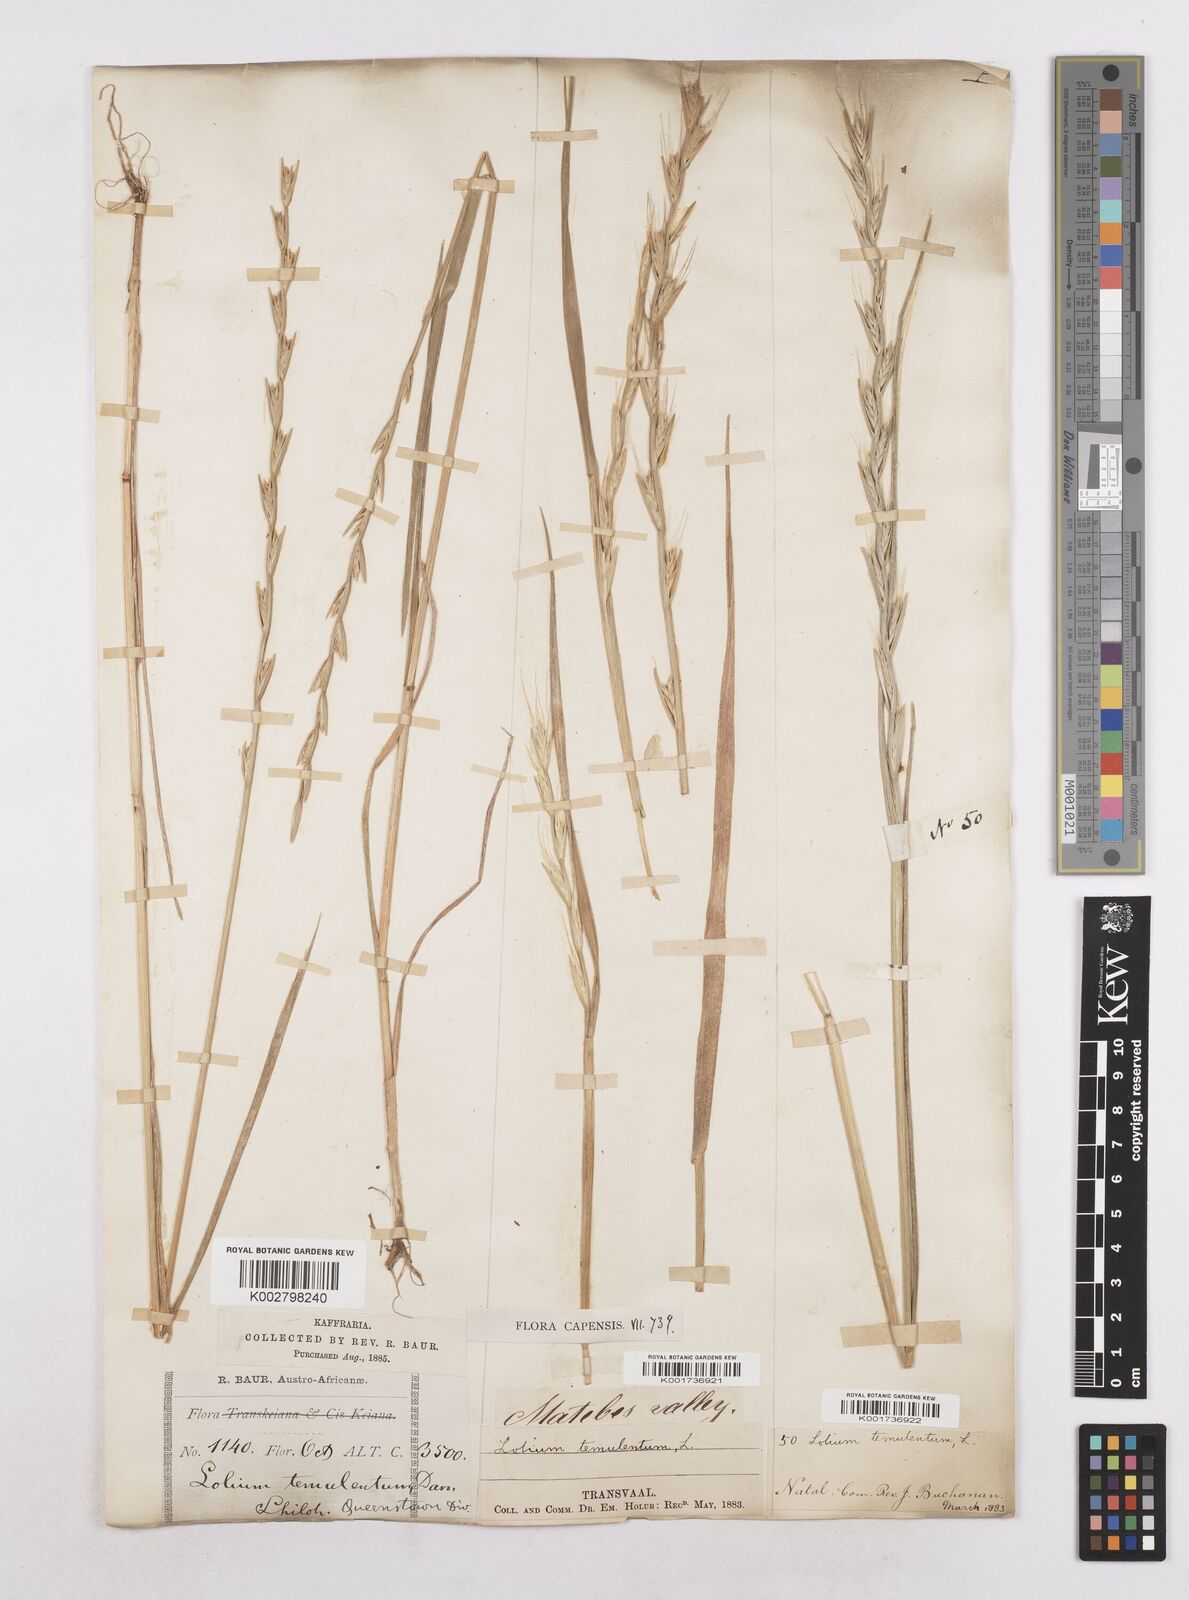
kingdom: Plantae
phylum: Tracheophyta
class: Liliopsida
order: Poales
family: Poaceae
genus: Lolium
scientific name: Lolium temulentum
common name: Darnel
